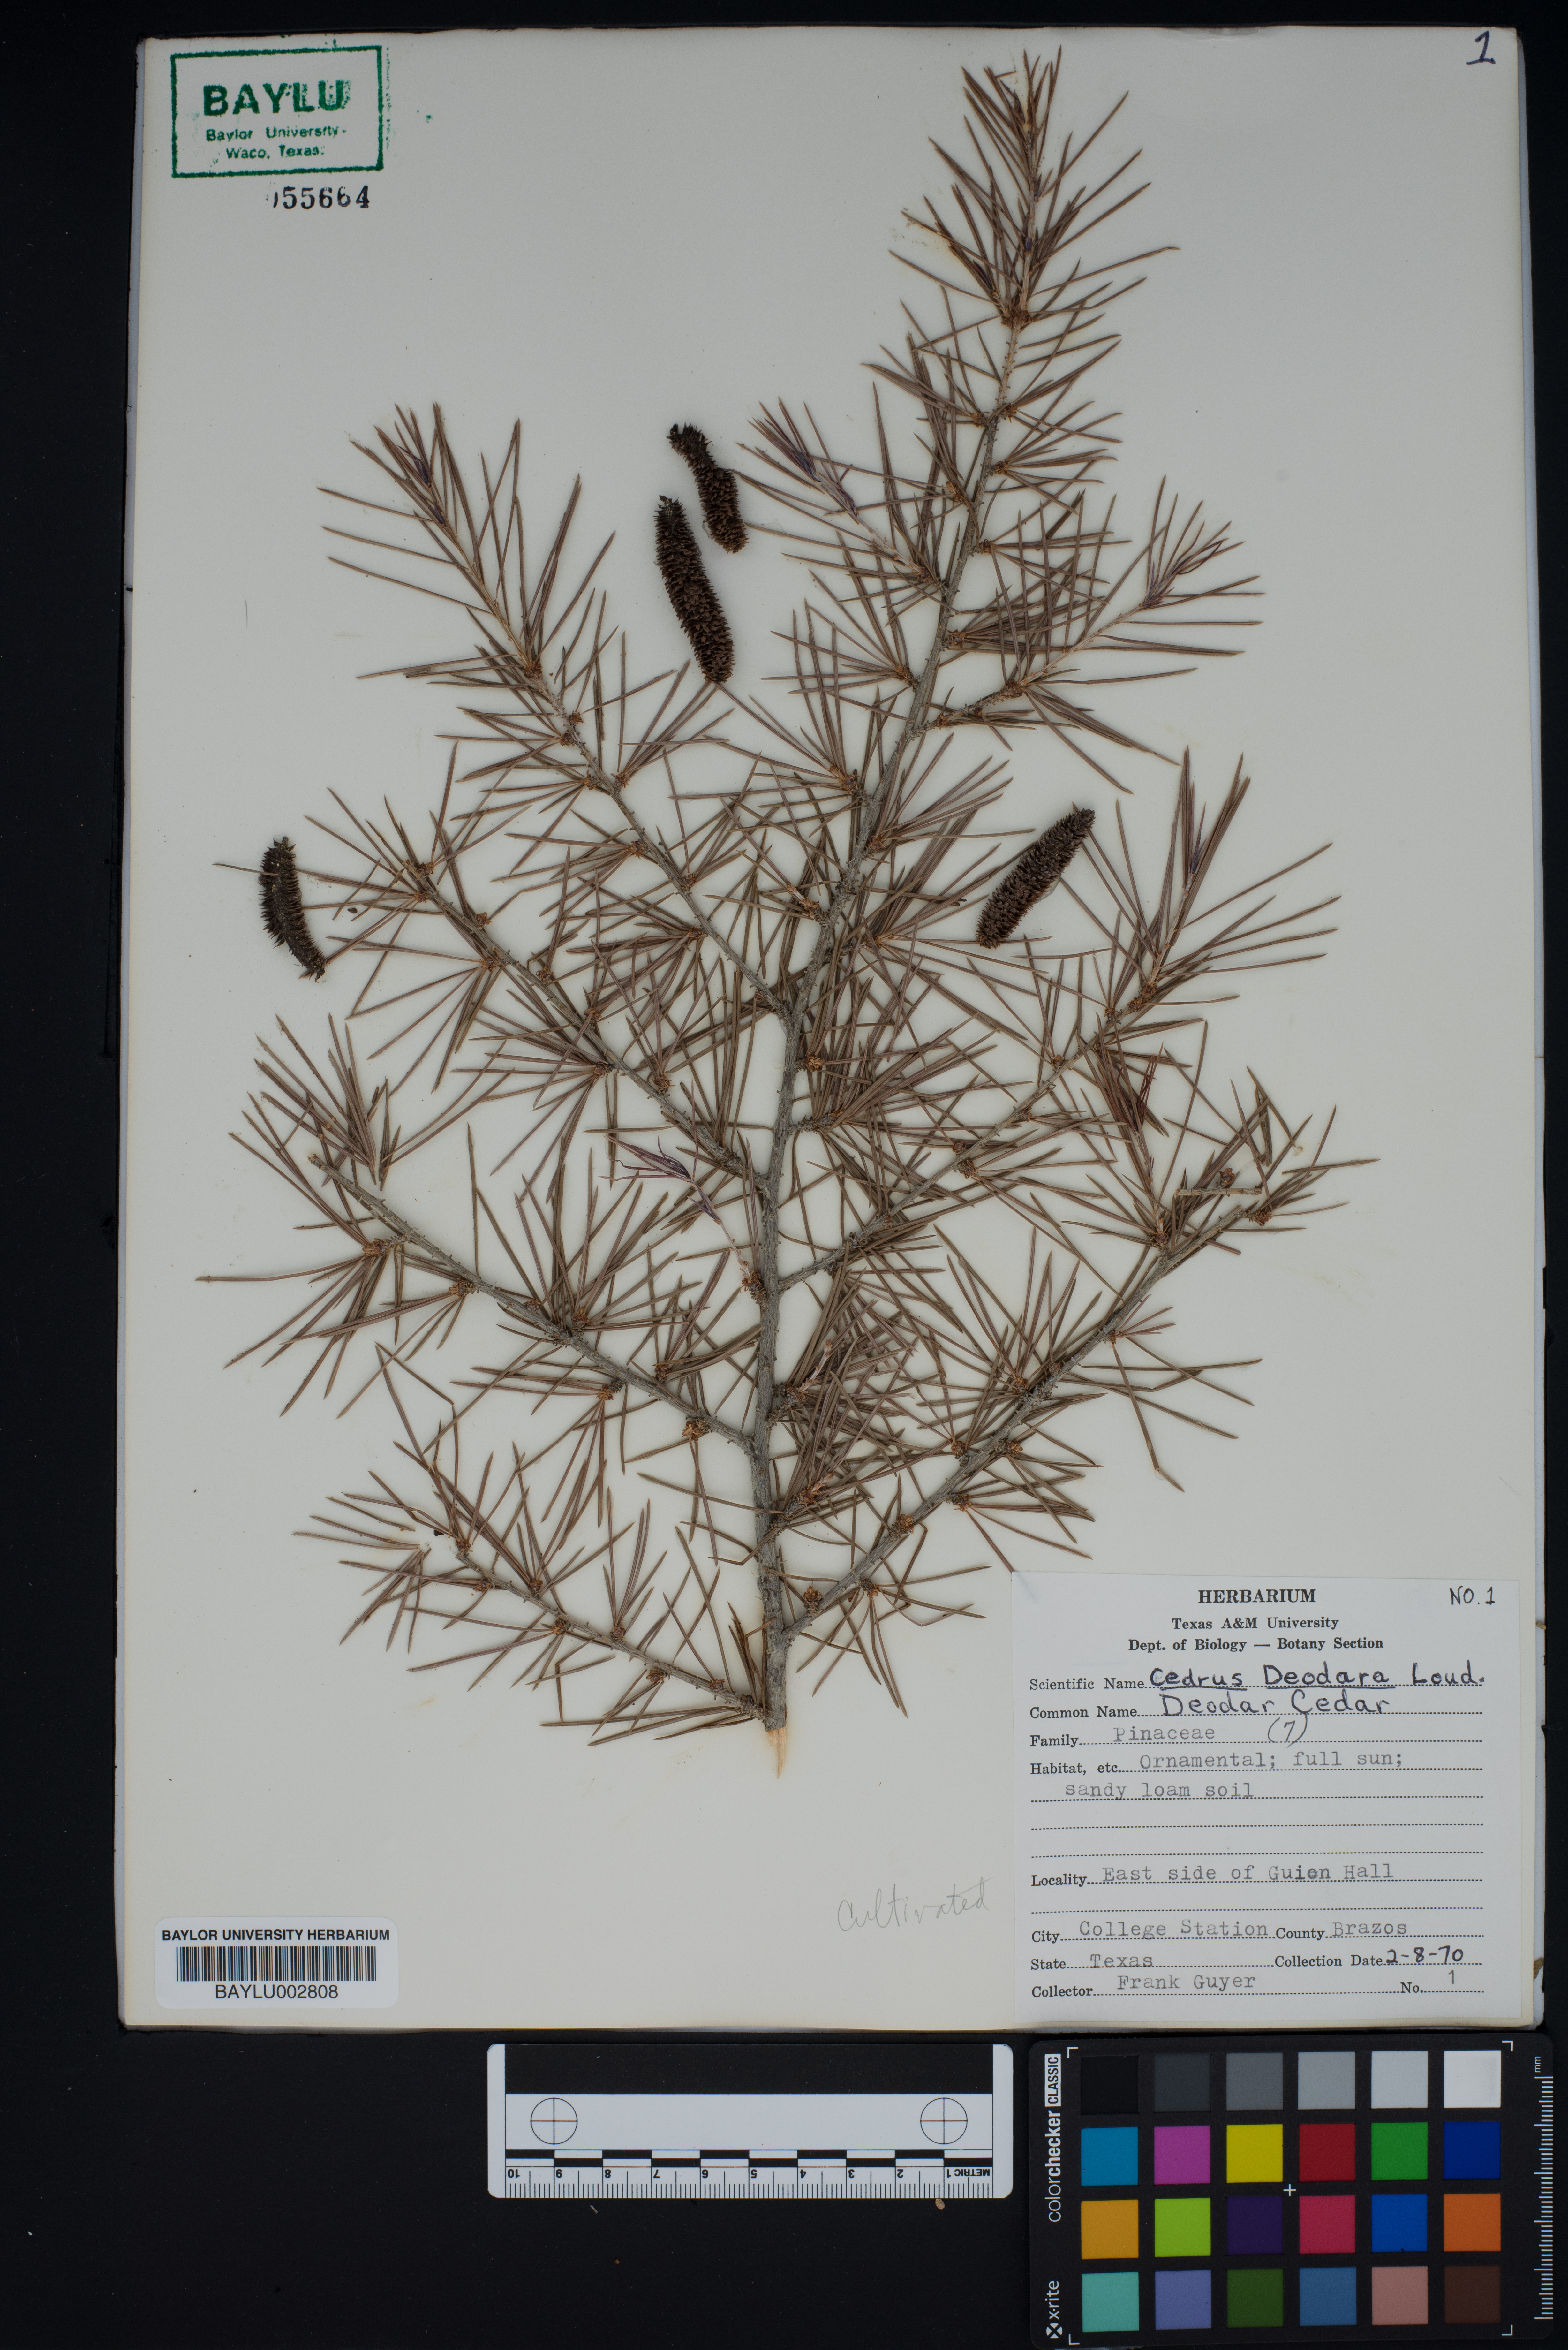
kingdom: Plantae
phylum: Tracheophyta
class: Pinopsida
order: Pinales
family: Pinaceae
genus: Cedrus
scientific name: Cedrus deodara
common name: Deodar
